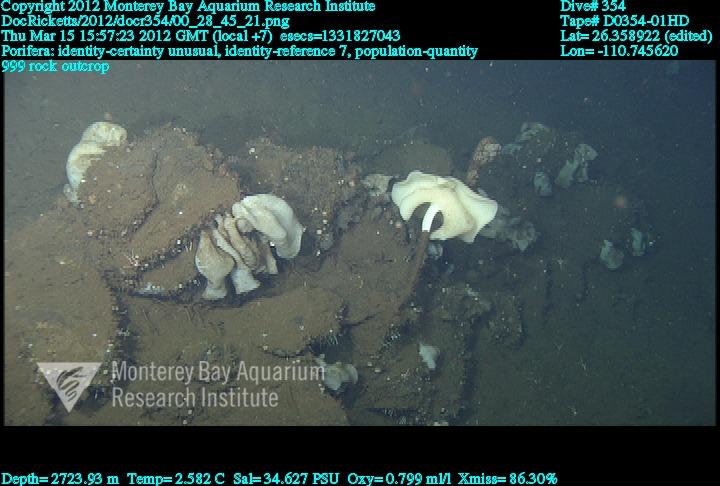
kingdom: Animalia
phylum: Porifera
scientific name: Porifera
